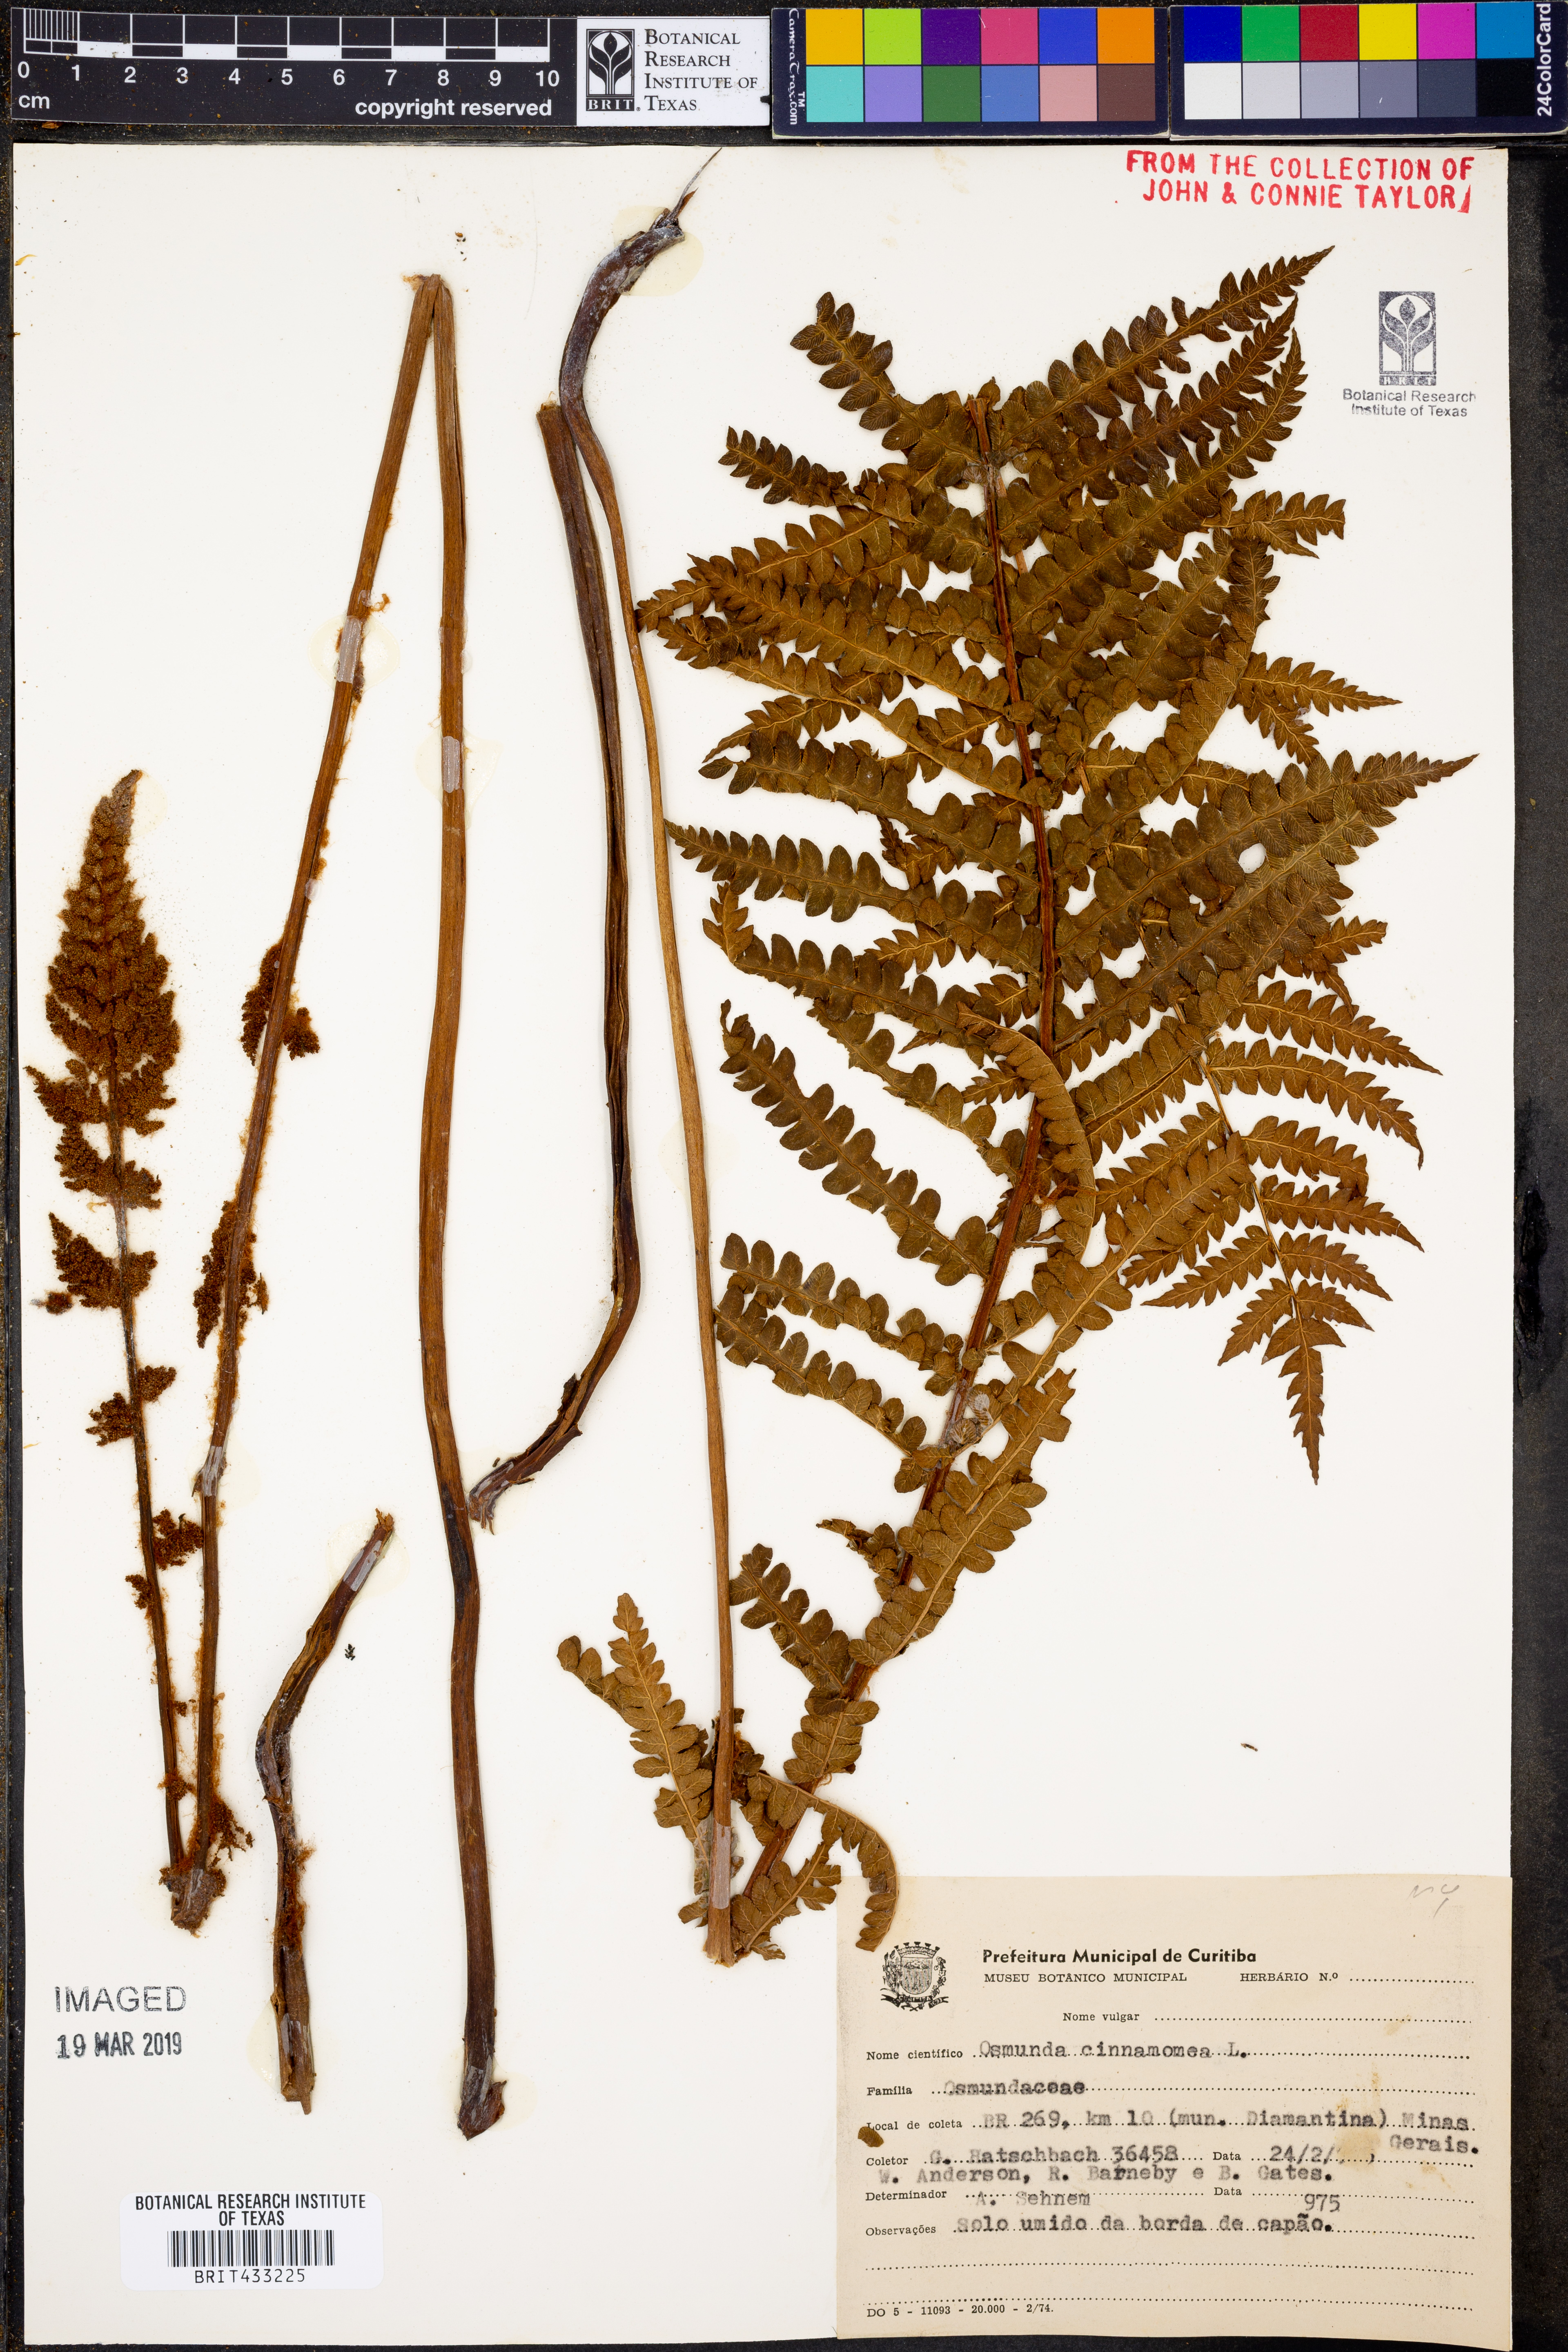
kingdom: Plantae
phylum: Tracheophyta
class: Polypodiopsida
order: Osmundales
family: Osmundaceae
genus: Osmundastrum
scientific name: Osmundastrum cinnamomeum
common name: Cinnamon fern
